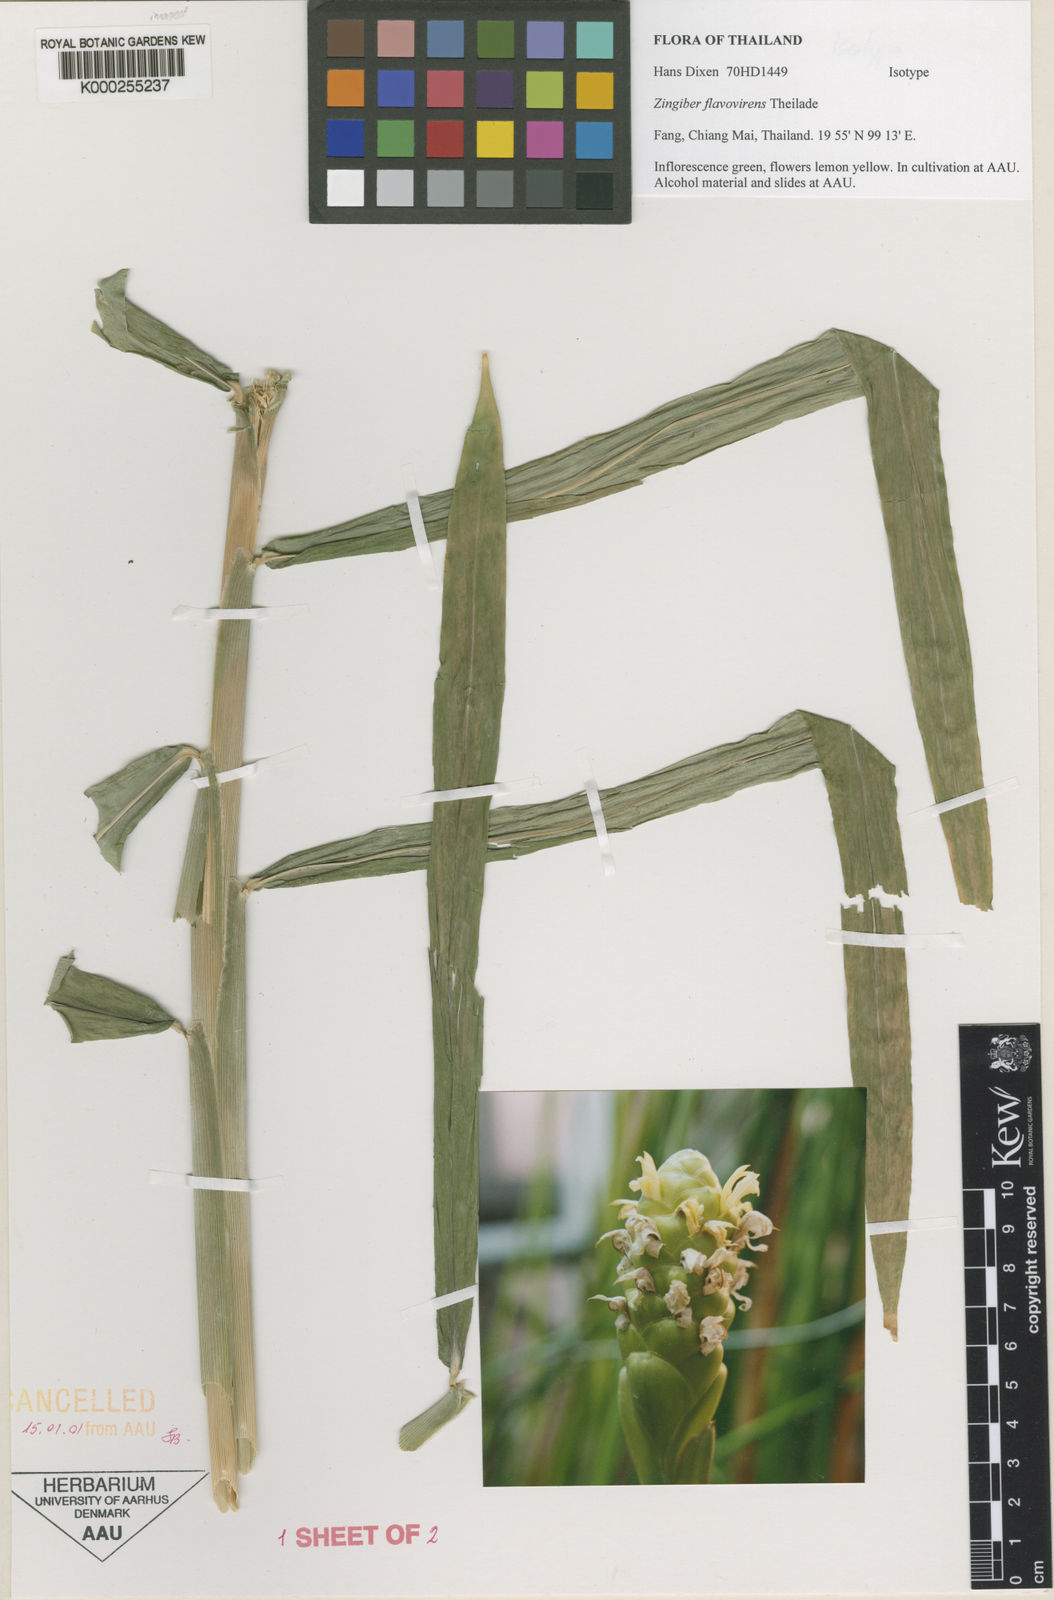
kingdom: Plantae
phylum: Tracheophyta
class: Liliopsida
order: Zingiberales
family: Zingiberaceae
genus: Zingiber
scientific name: Zingiber flavovirens
